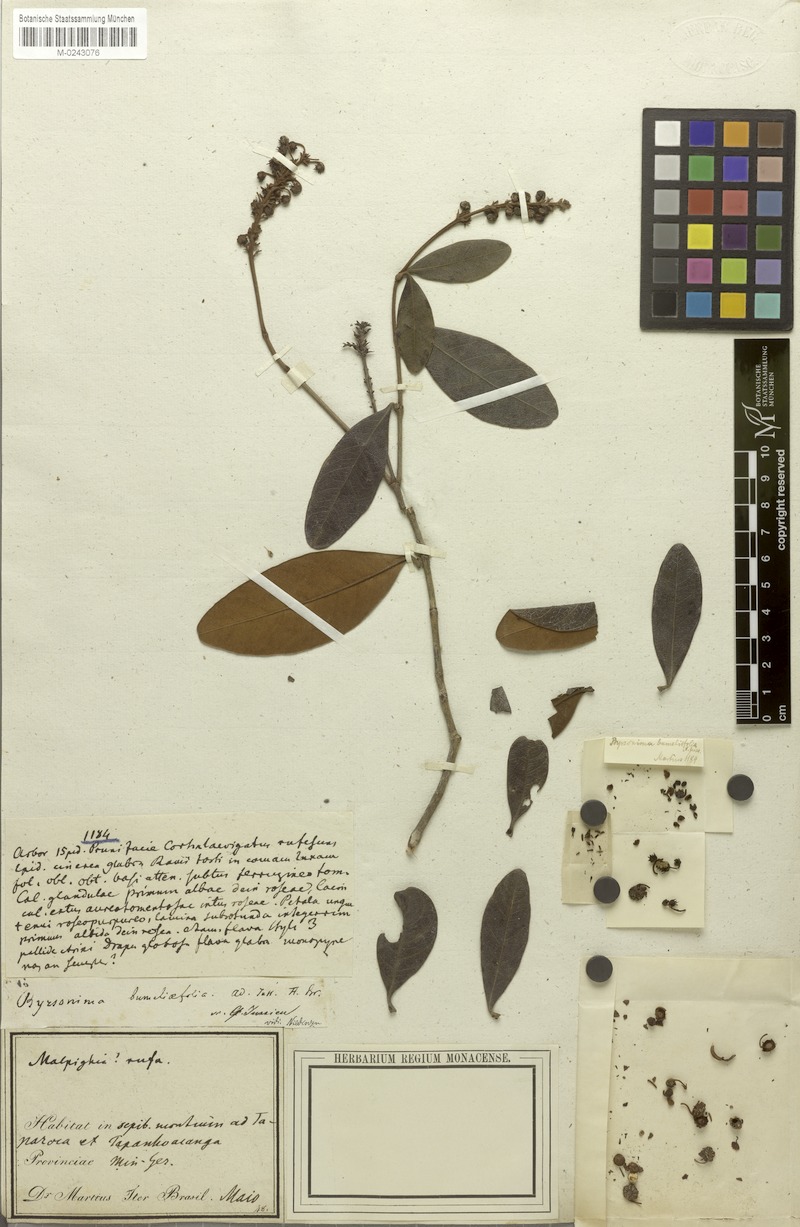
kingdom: Plantae
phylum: Tracheophyta
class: Magnoliopsida
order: Malpighiales
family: Malpighiaceae
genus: Byrsonima
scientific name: Byrsonima bumeliifolia
